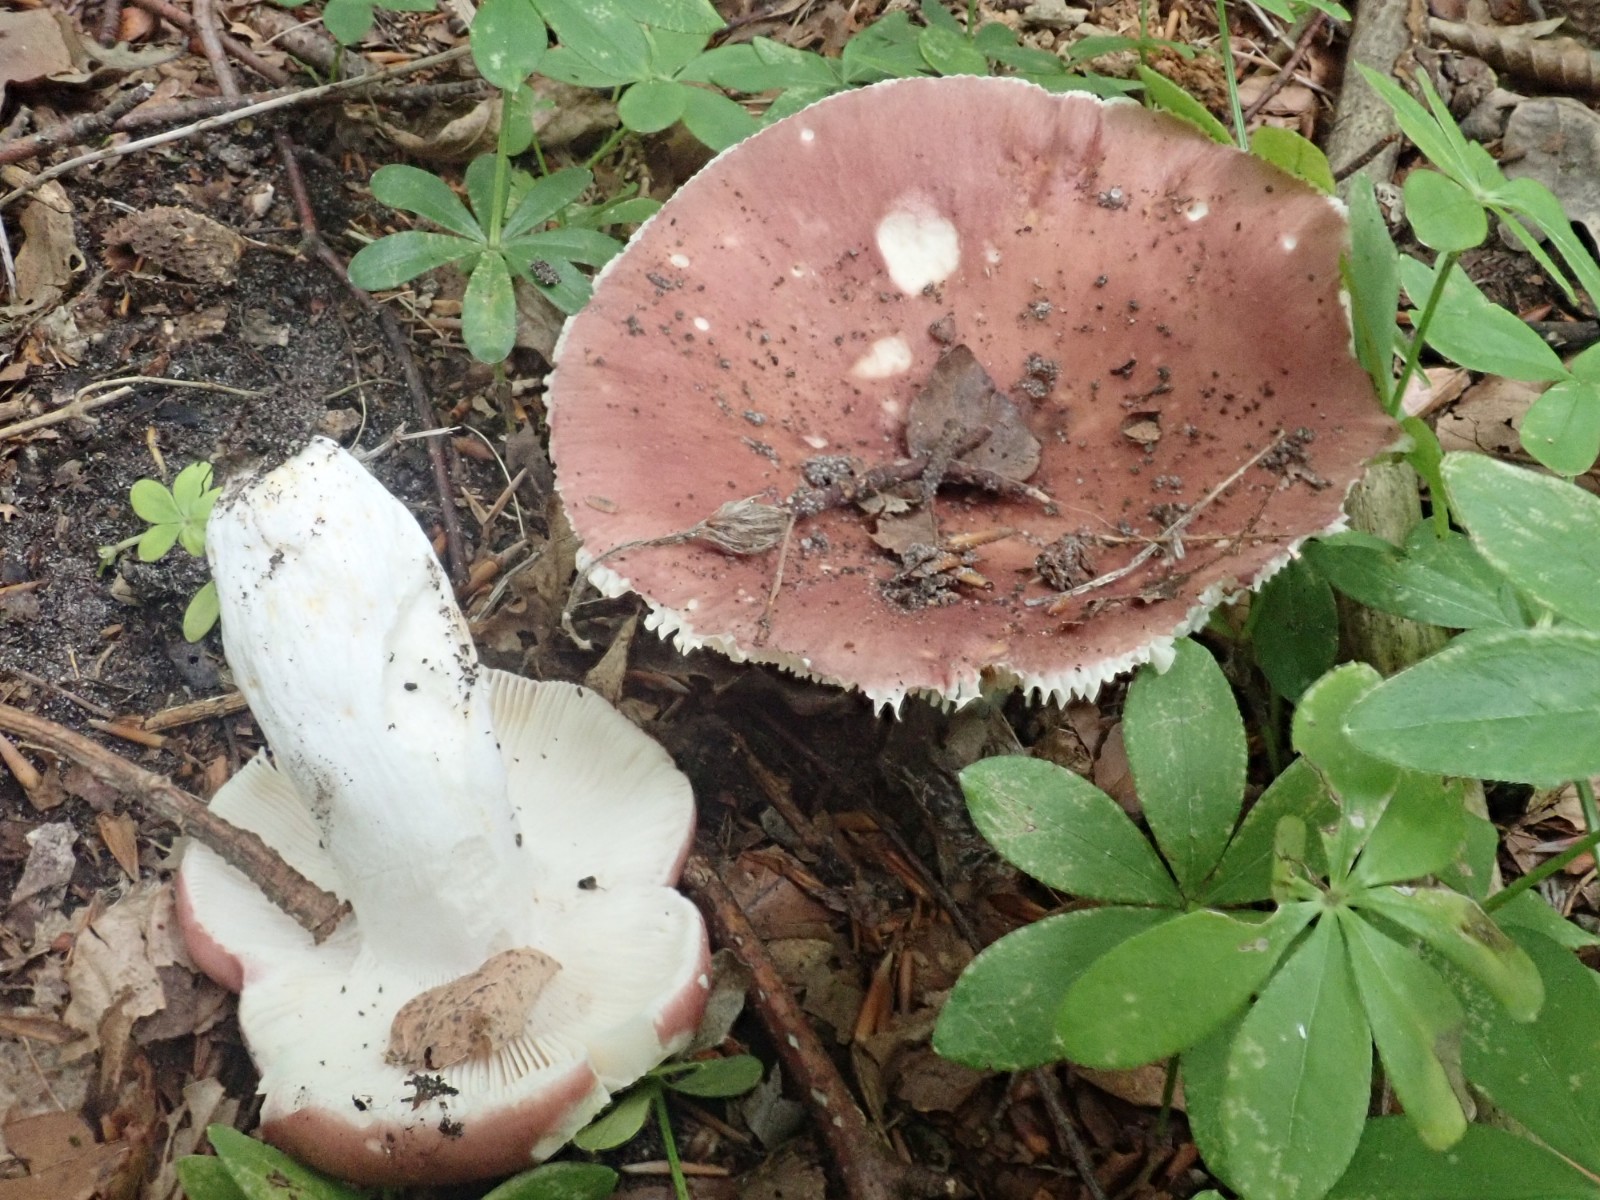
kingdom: Fungi
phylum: Basidiomycota
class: Agaricomycetes
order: Russulales
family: Russulaceae
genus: Russula
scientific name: Russula vesca
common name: spiselig skørhat
